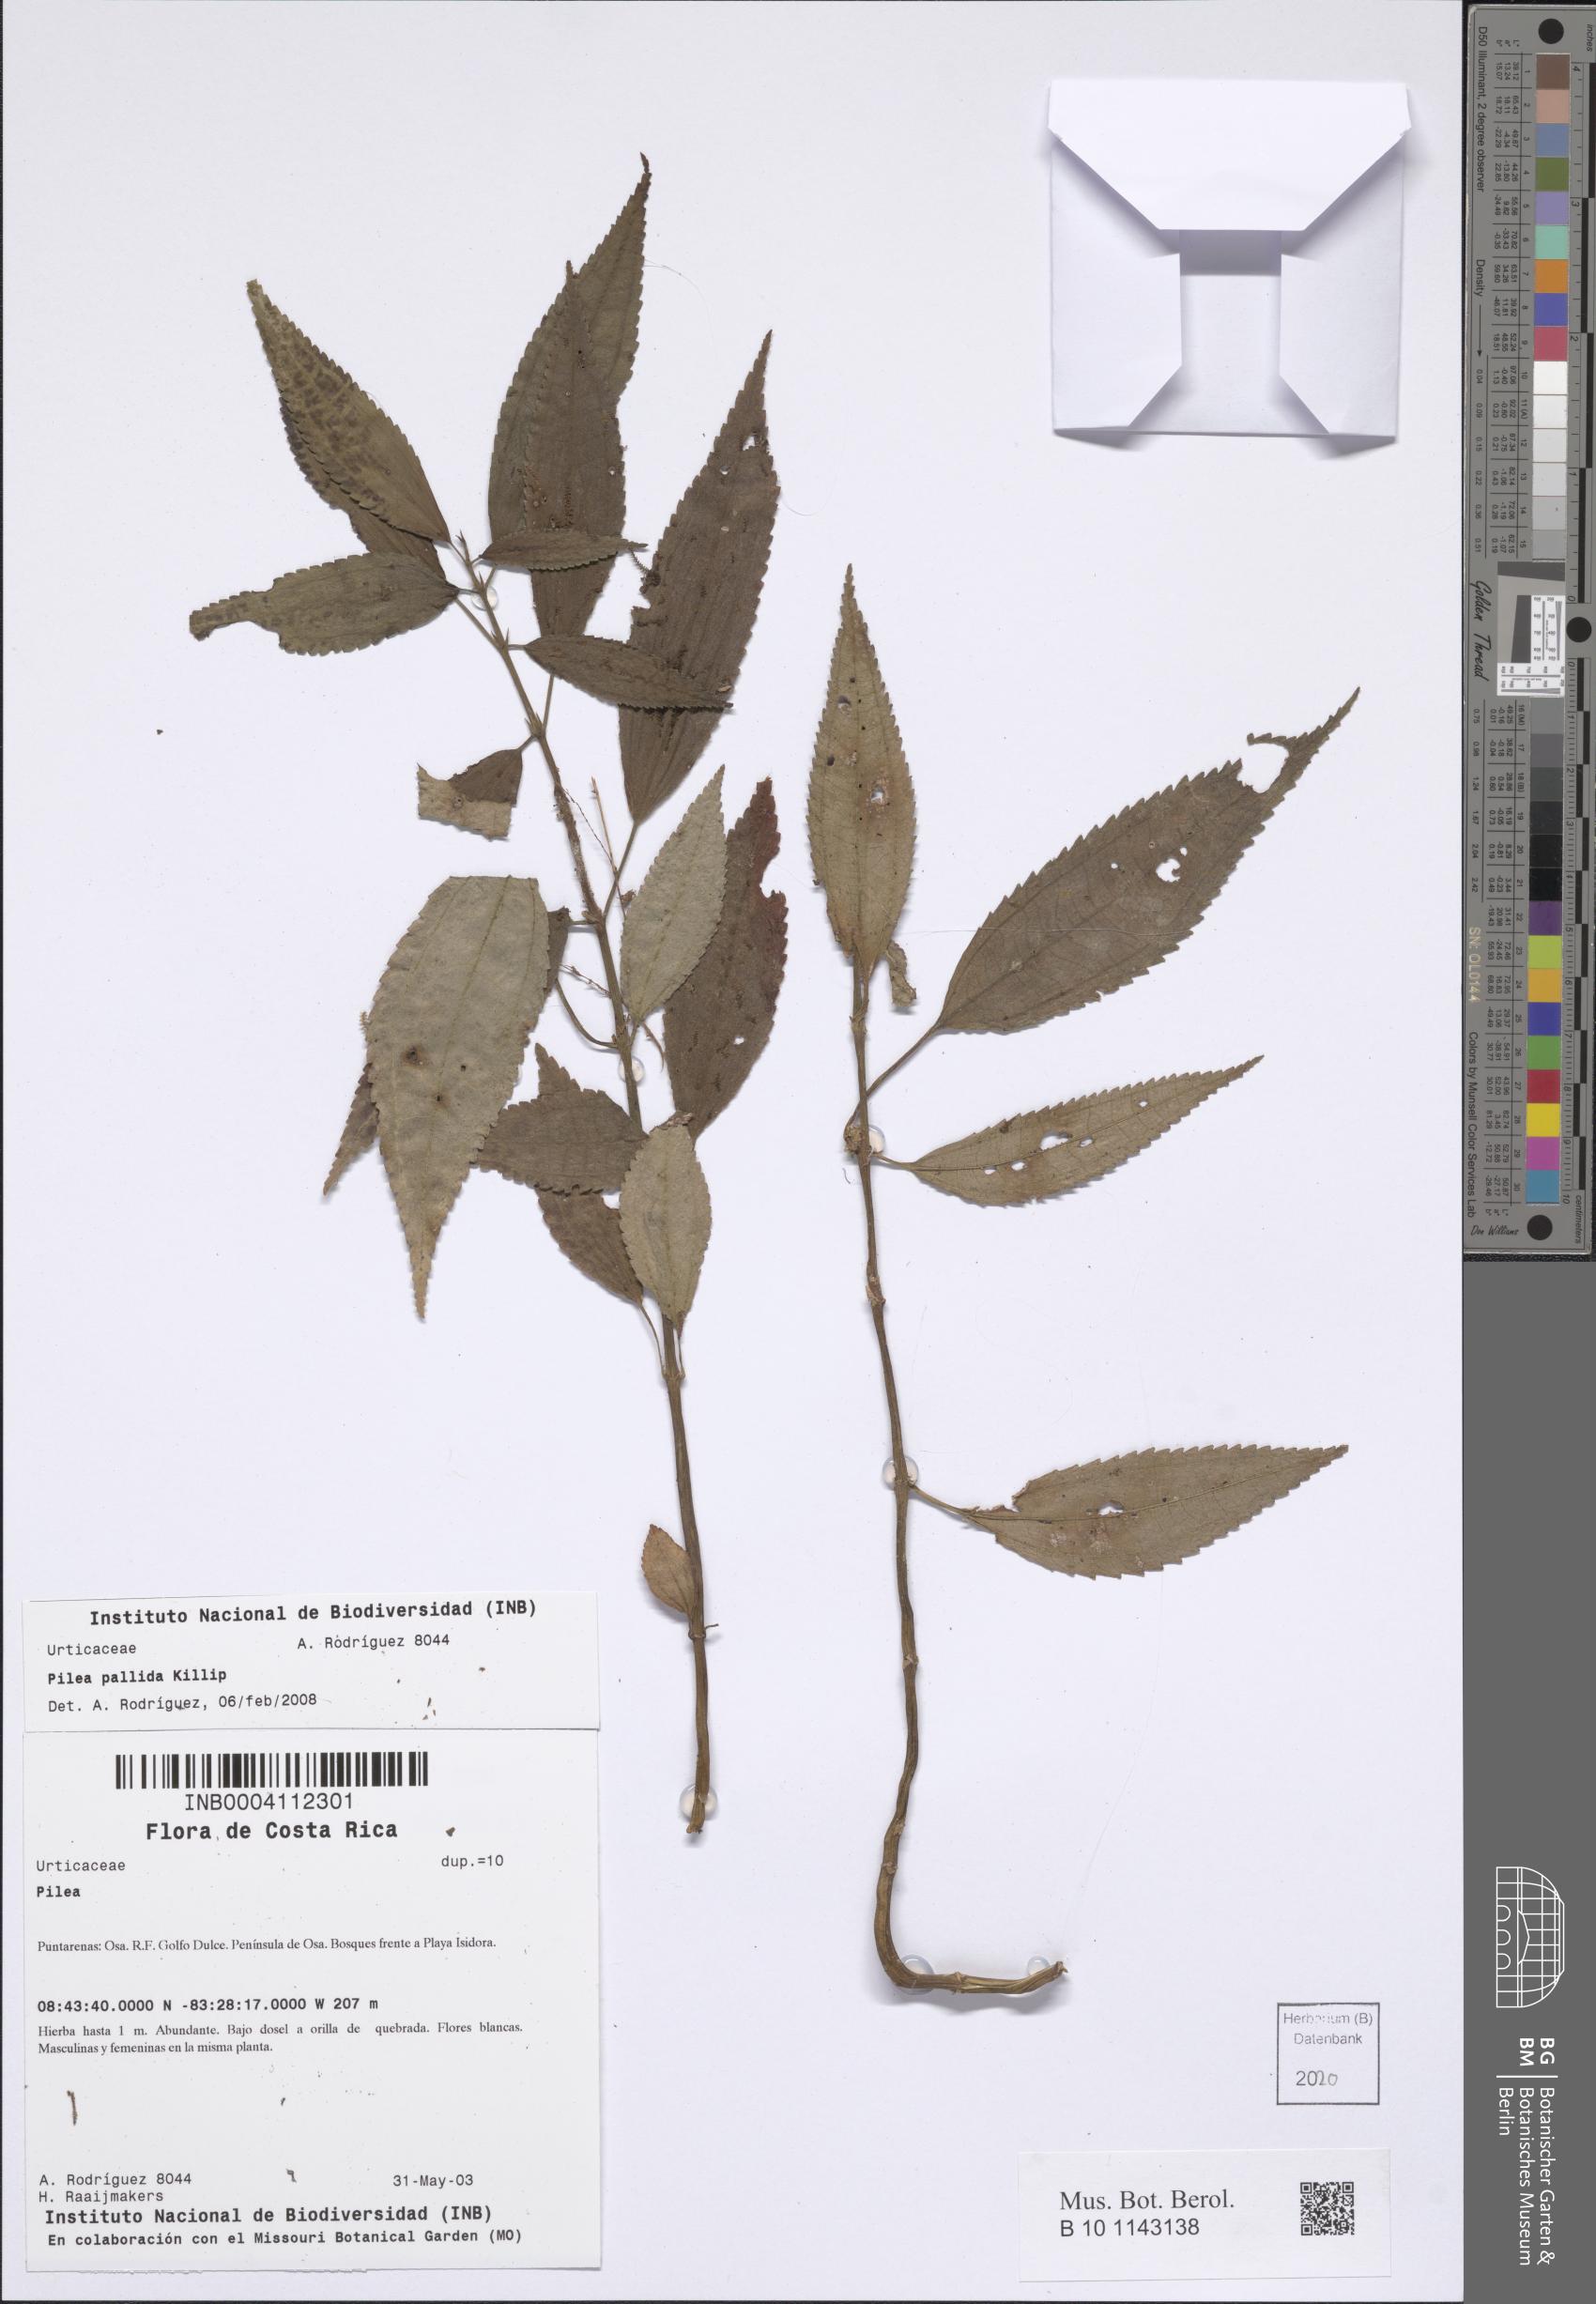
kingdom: Plantae
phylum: Tracheophyta
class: Magnoliopsida
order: Rosales
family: Urticaceae
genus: Pilea
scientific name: Pilea pallida
